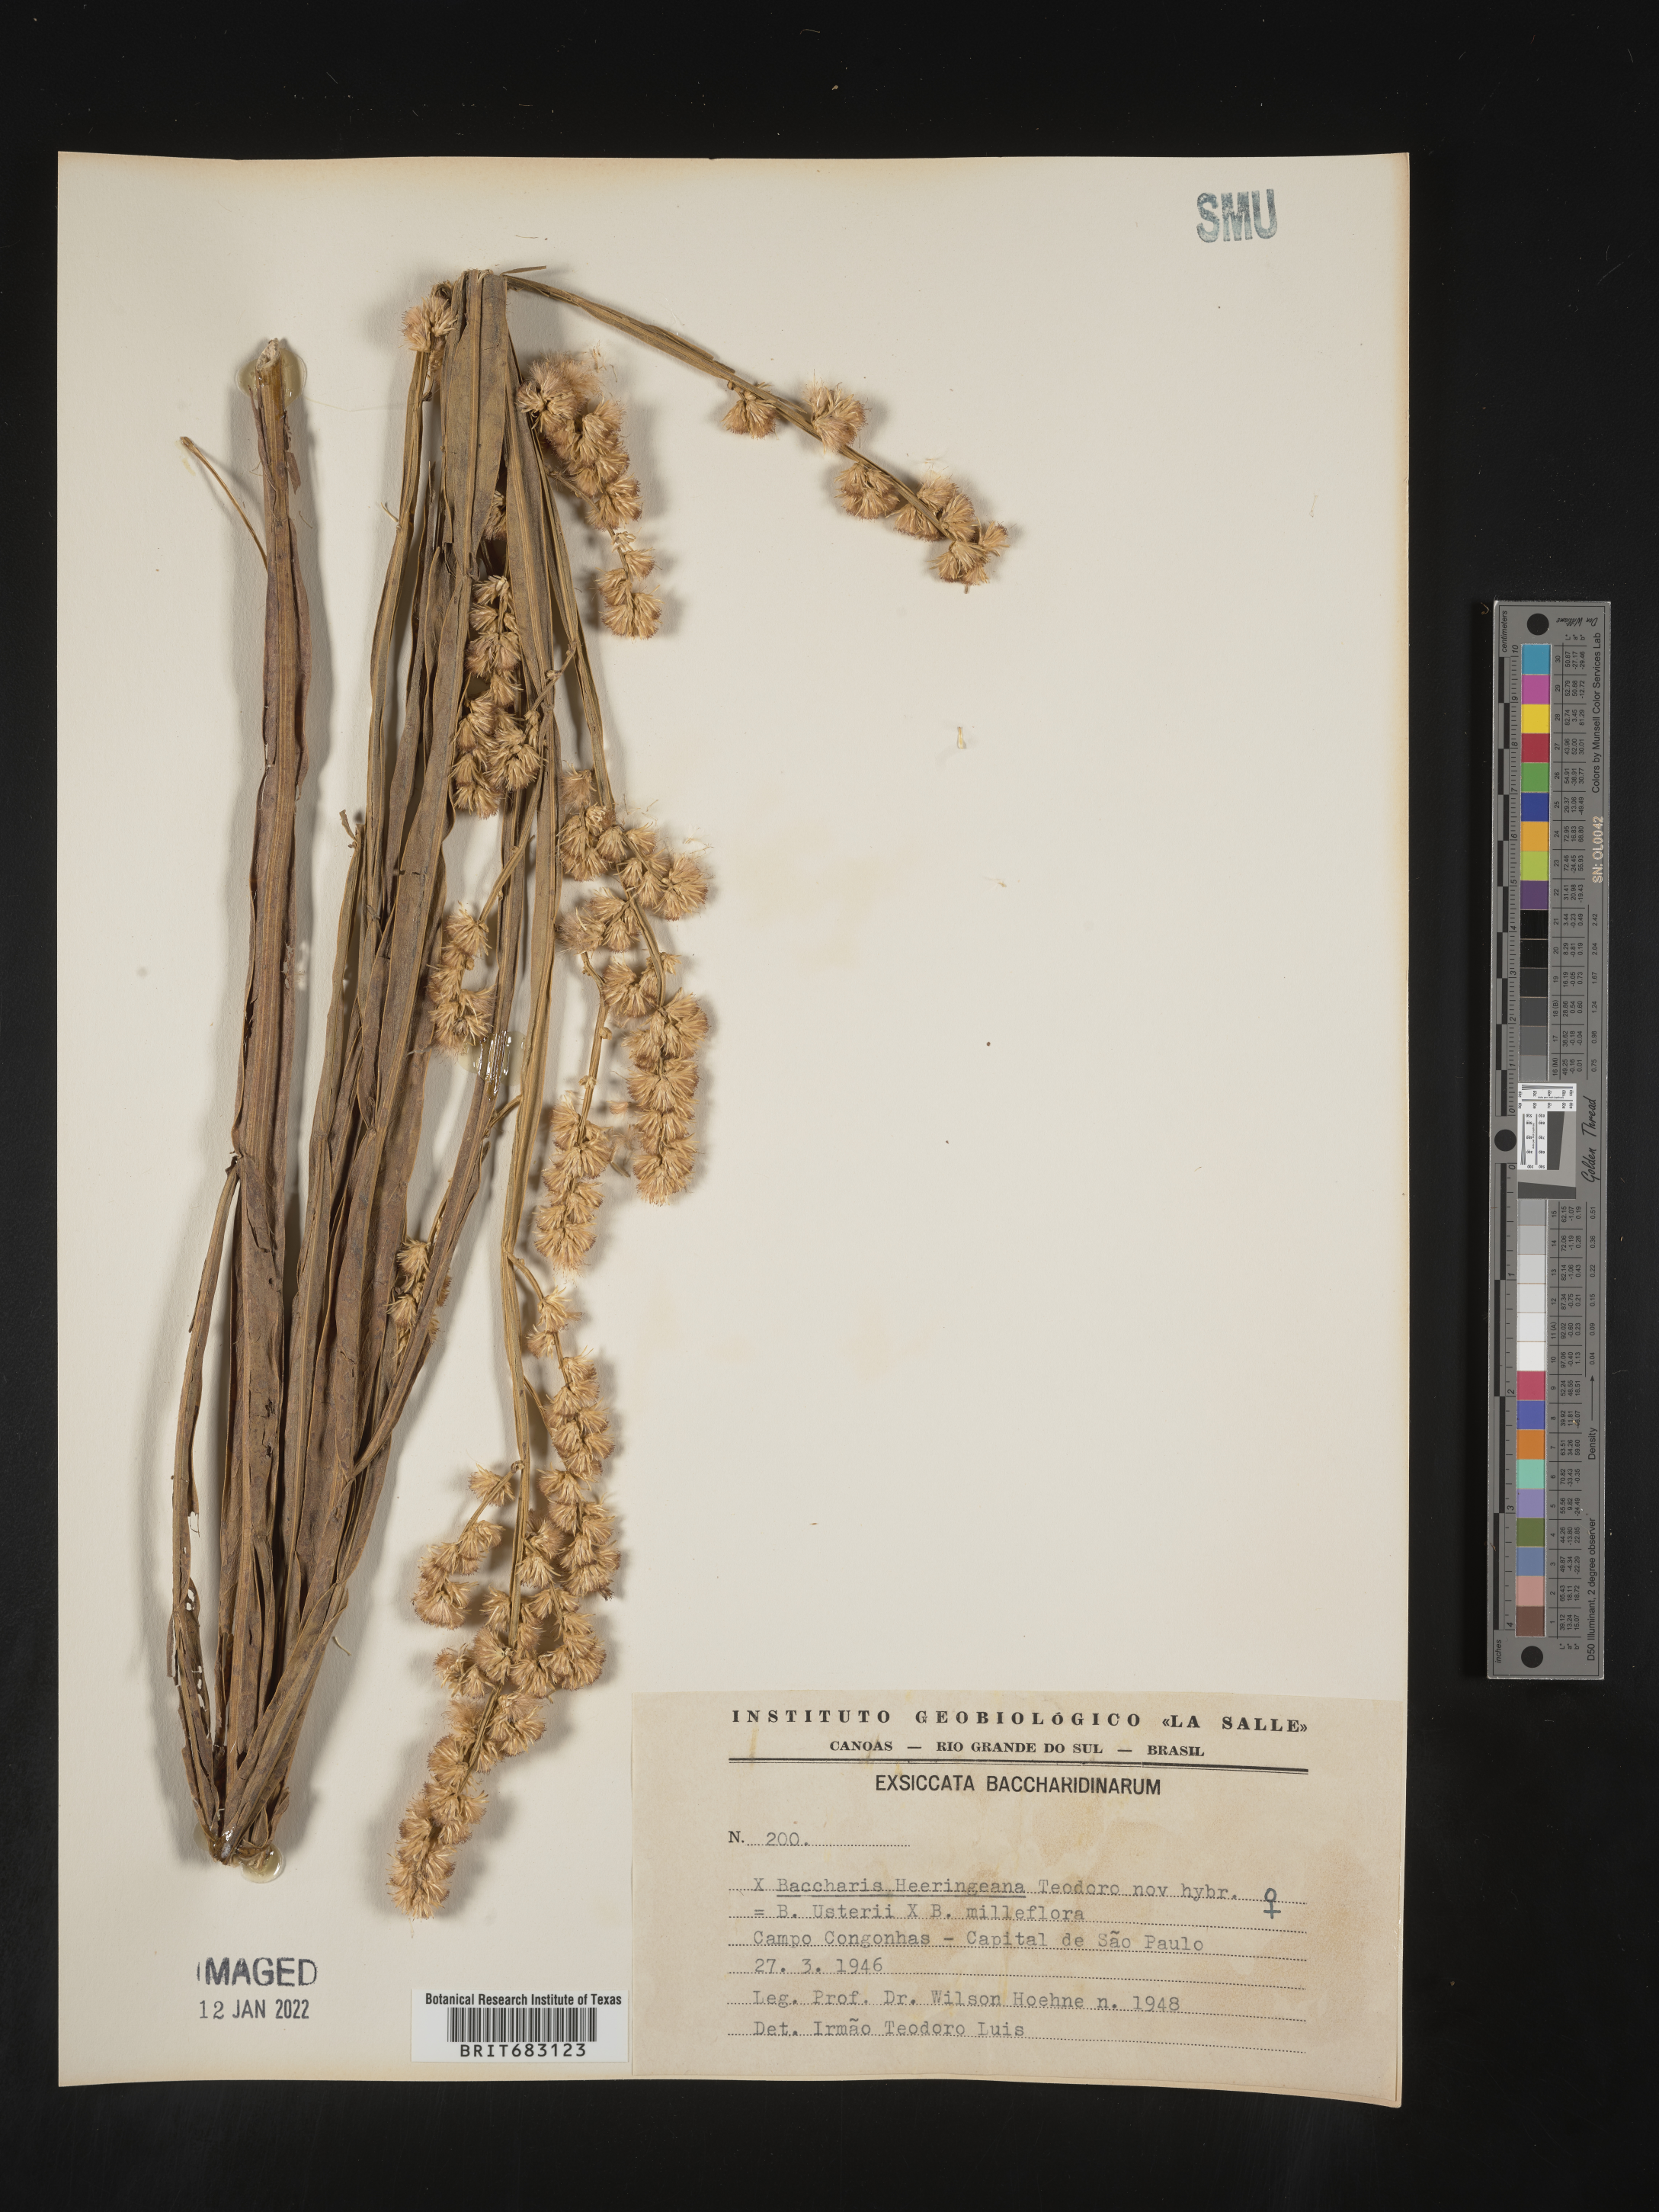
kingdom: Plantae
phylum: Tracheophyta
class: Magnoliopsida
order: Asterales
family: Asteraceae
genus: Baccharis
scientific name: Baccharis
